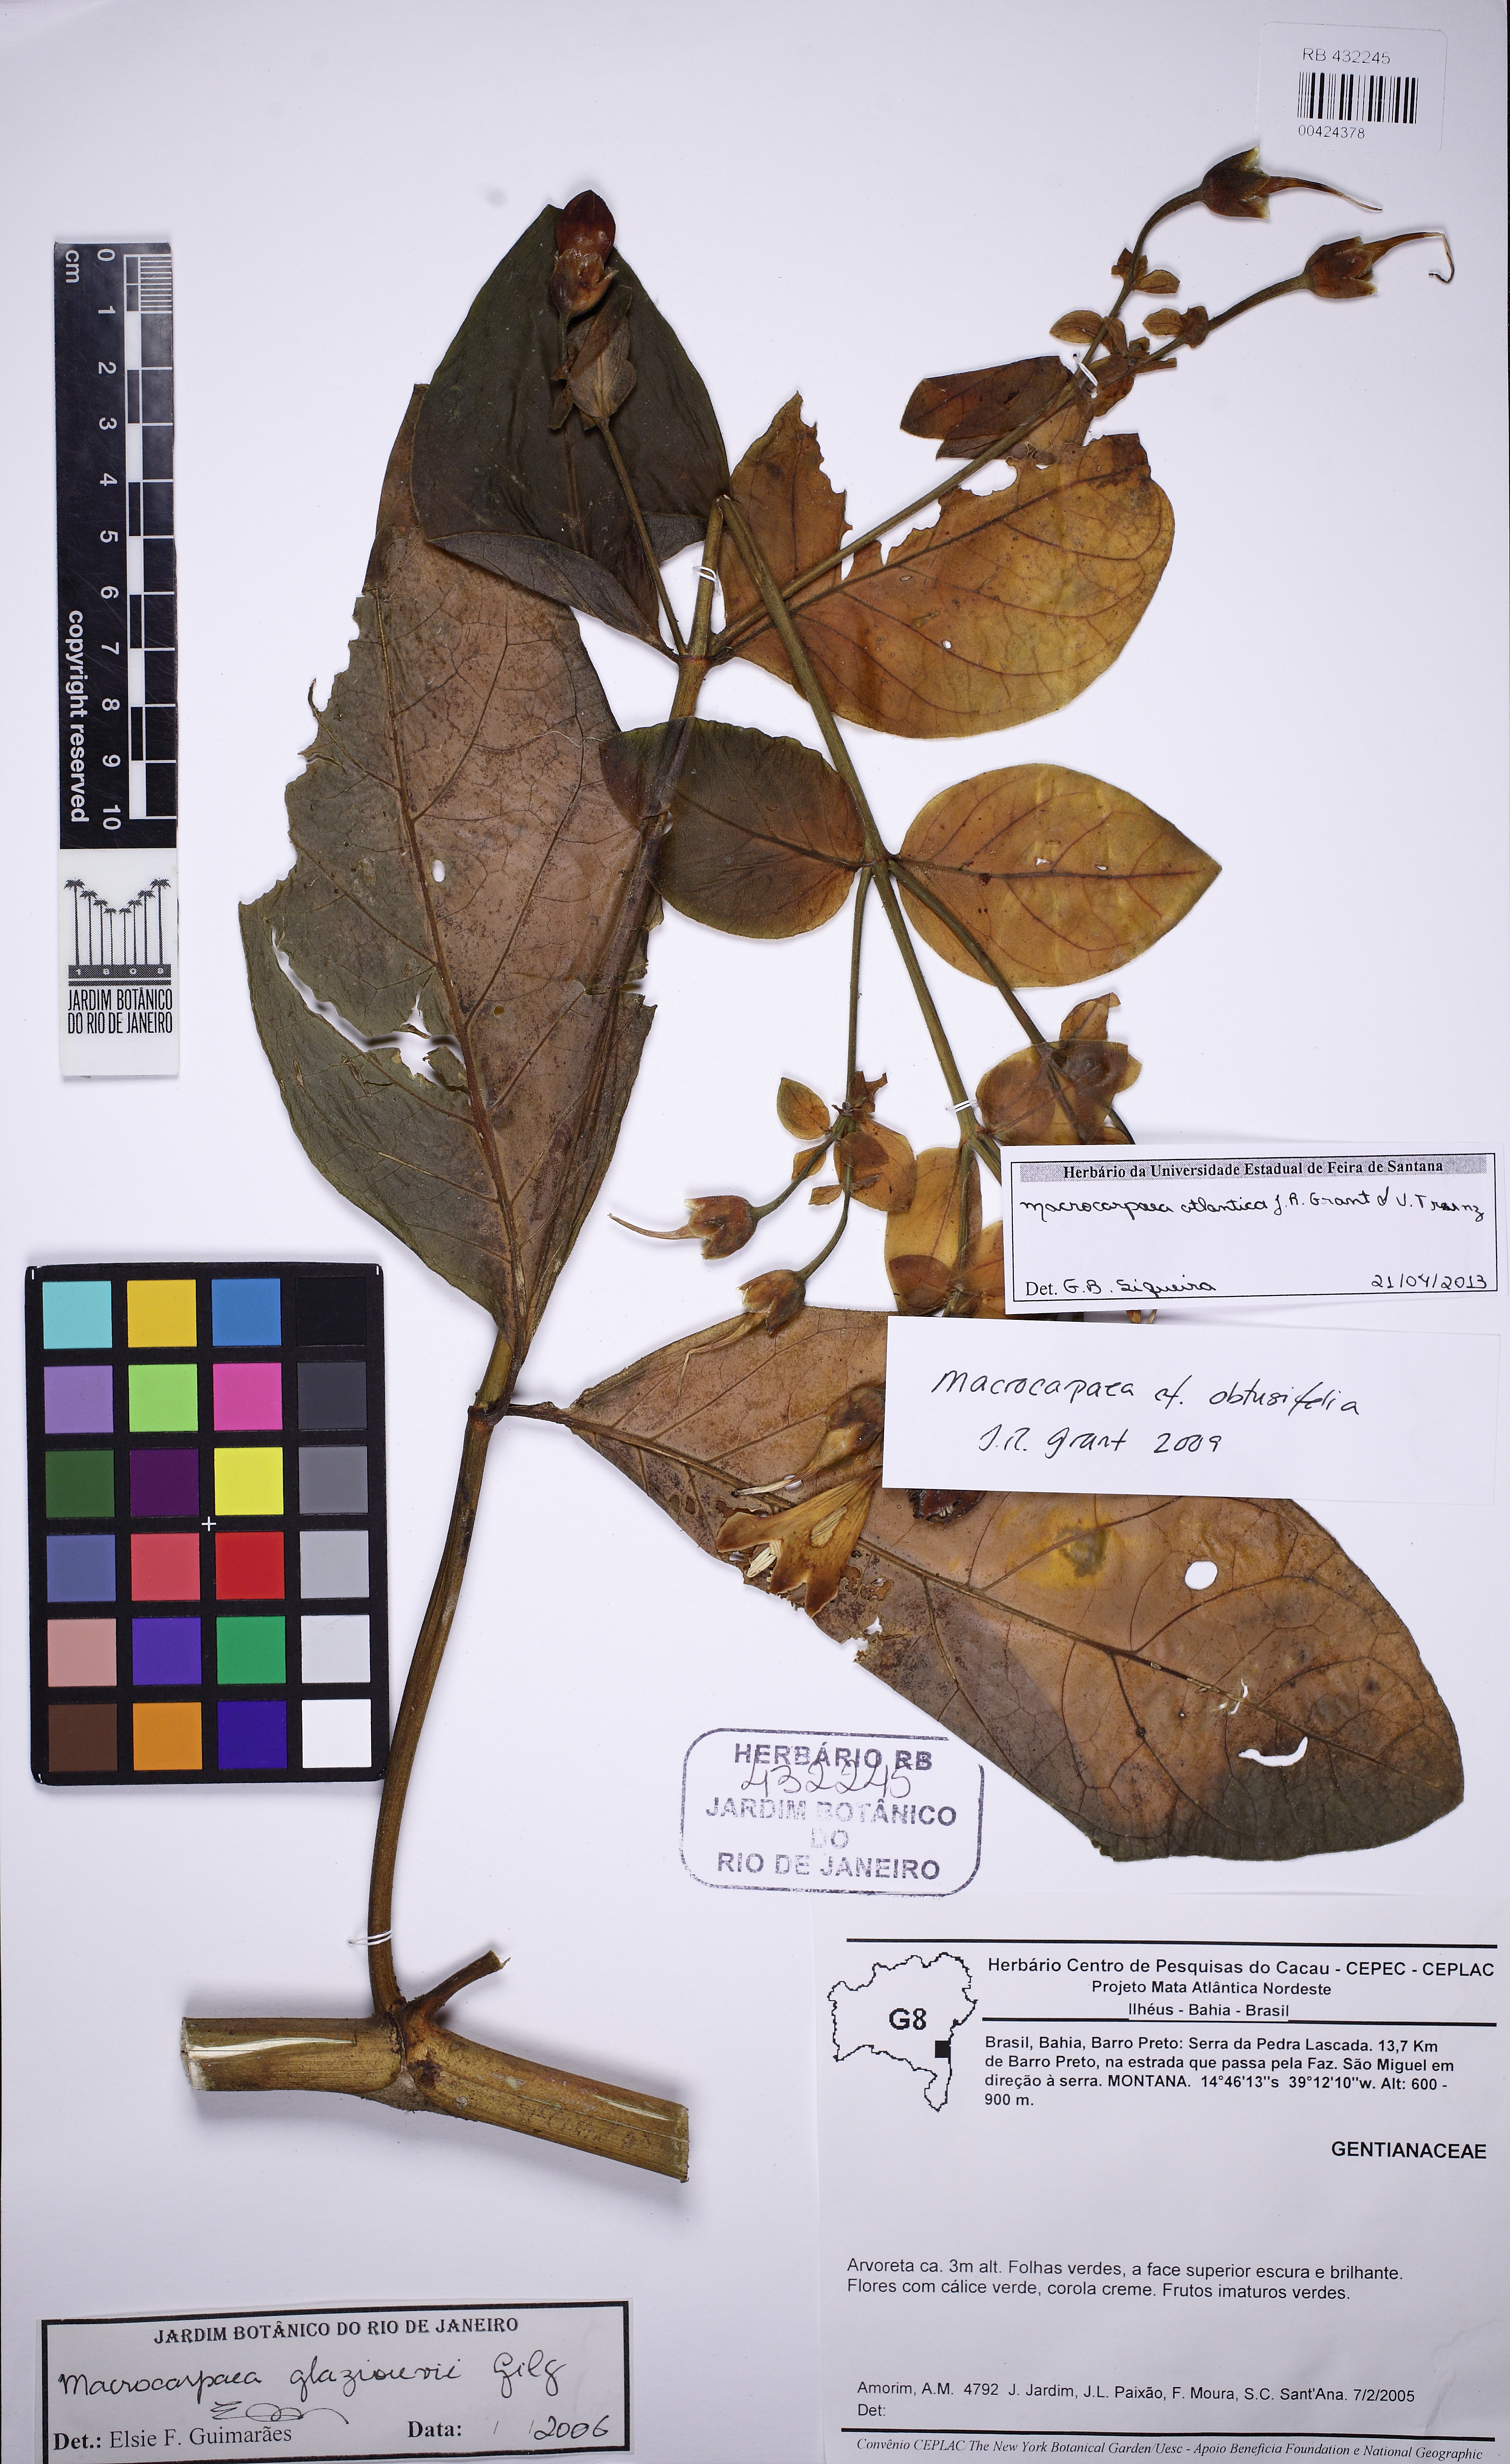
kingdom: Plantae
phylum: Tracheophyta
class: Magnoliopsida
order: Gentianales
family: Gentianaceae
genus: Macrocarpaea
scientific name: Macrocarpaea atlantica
